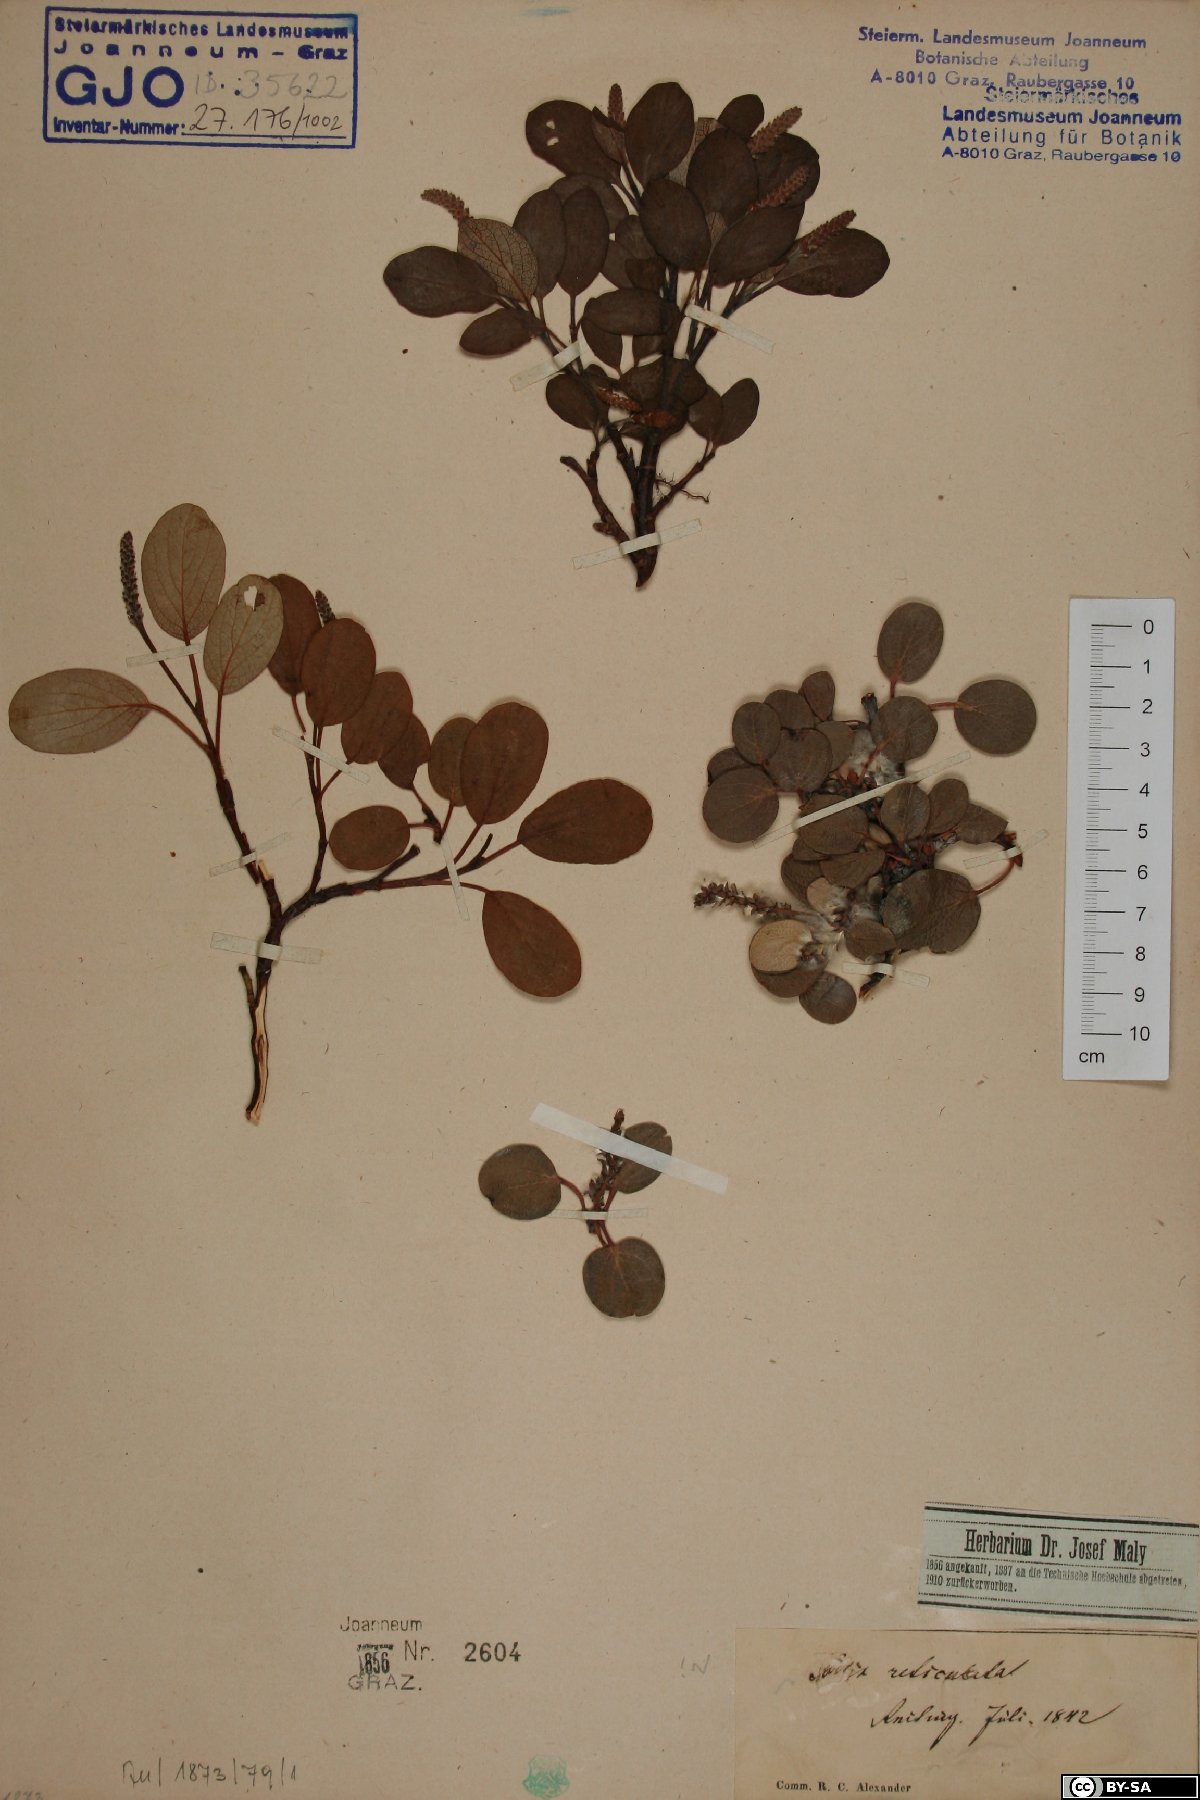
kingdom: Plantae
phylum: Tracheophyta
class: Magnoliopsida
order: Malpighiales
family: Salicaceae
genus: Salix
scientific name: Salix reticulata
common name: Net-leaved willow
